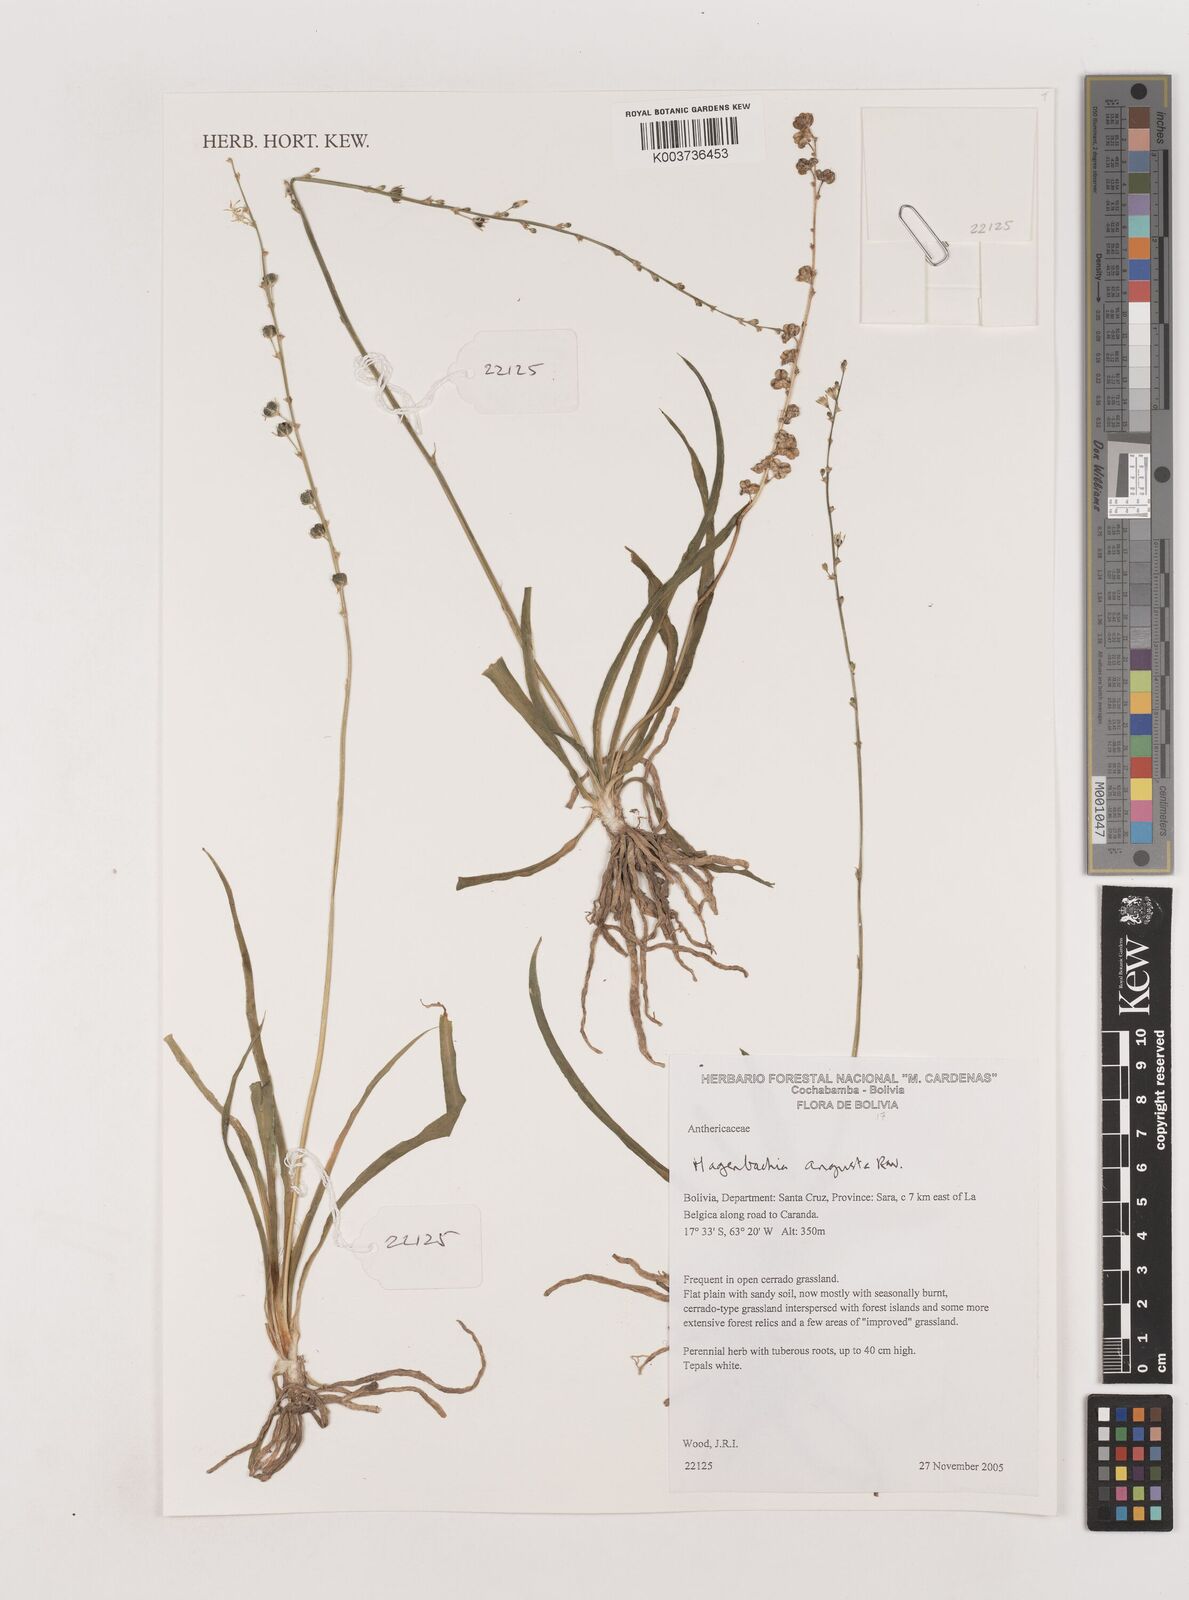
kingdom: Plantae
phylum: Tracheophyta
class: Liliopsida
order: Asparagales
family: Asparagaceae
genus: Hagenbachia
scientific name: Hagenbachia matogrossensis
